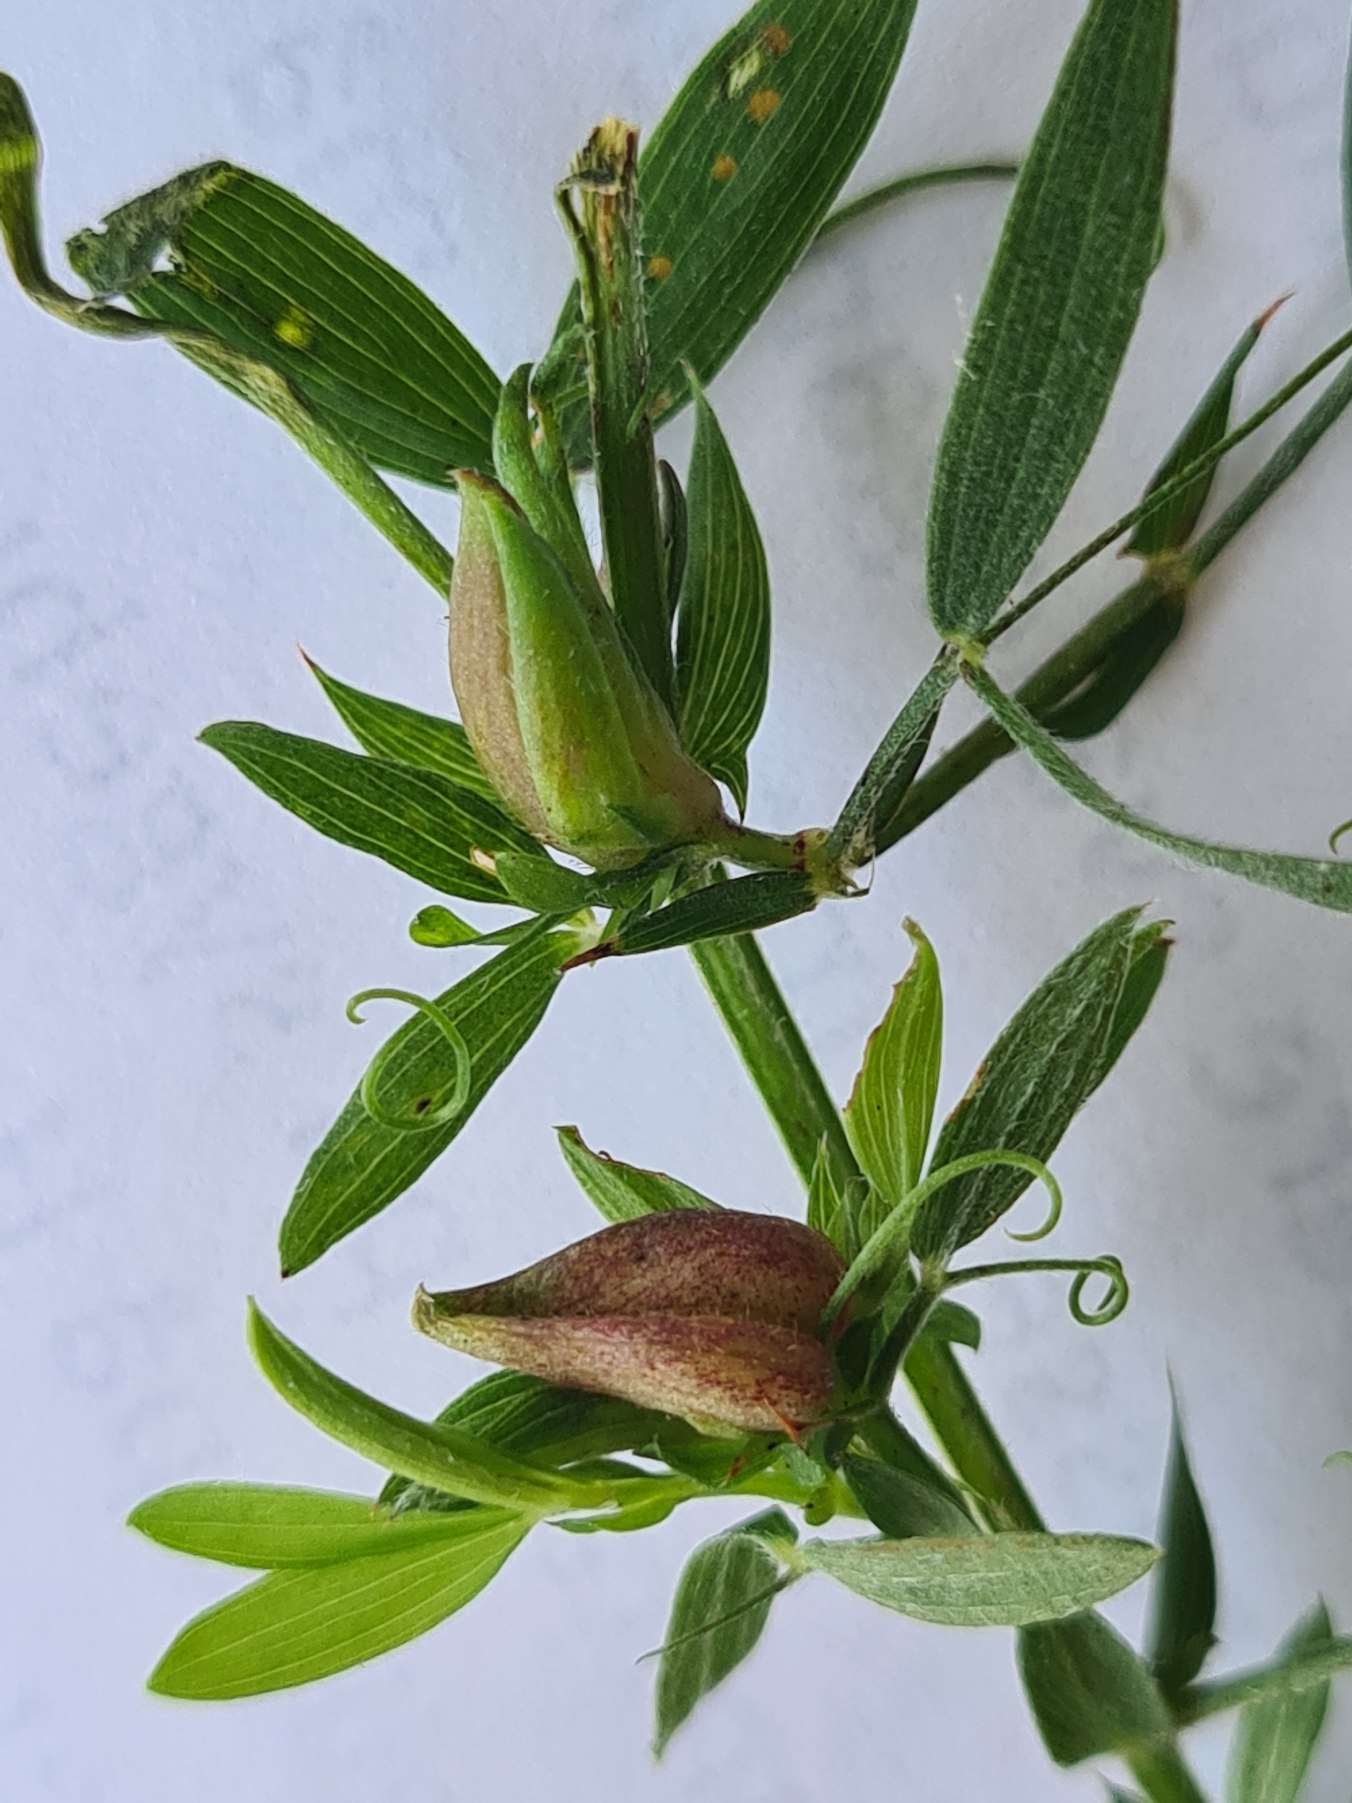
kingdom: Animalia
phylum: Arthropoda
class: Insecta
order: Diptera
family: Cecidomyiidae
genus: Dasineura
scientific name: Dasineura lathyri
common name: Fladbælgbladgalmyg
